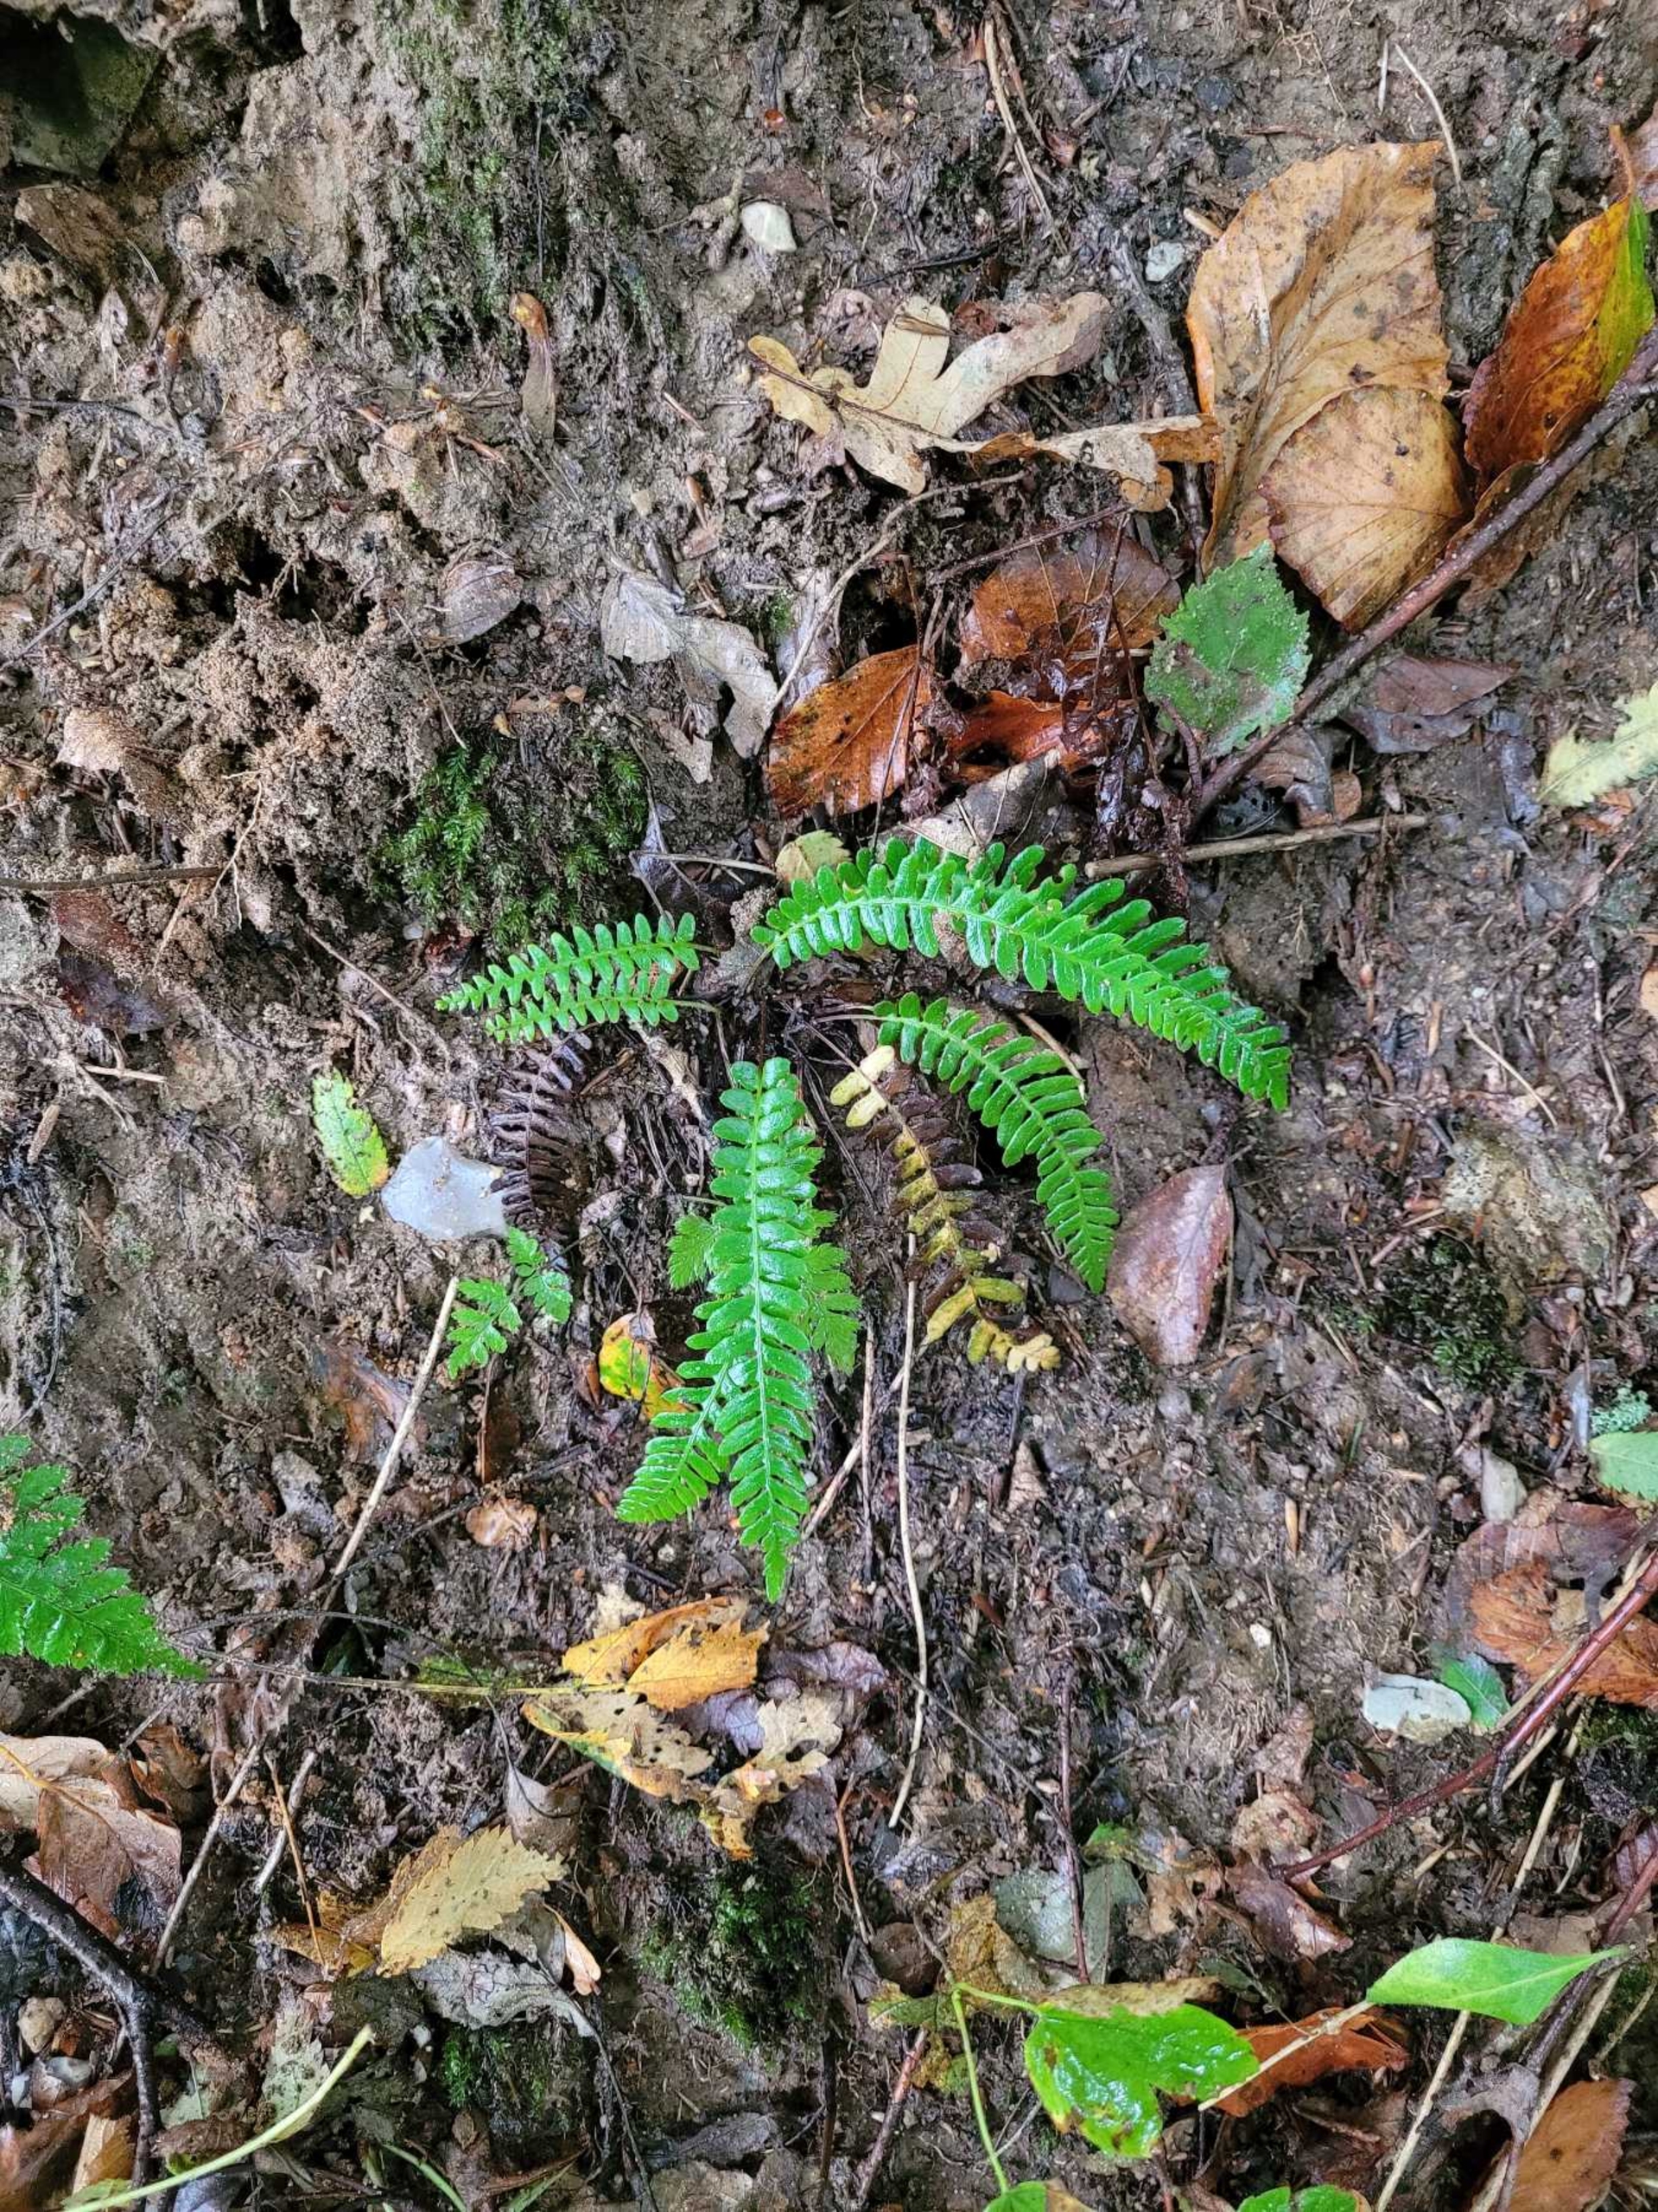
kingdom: Plantae
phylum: Tracheophyta
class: Polypodiopsida
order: Polypodiales
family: Blechnaceae
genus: Struthiopteris
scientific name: Struthiopteris spicant
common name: Kambregne
